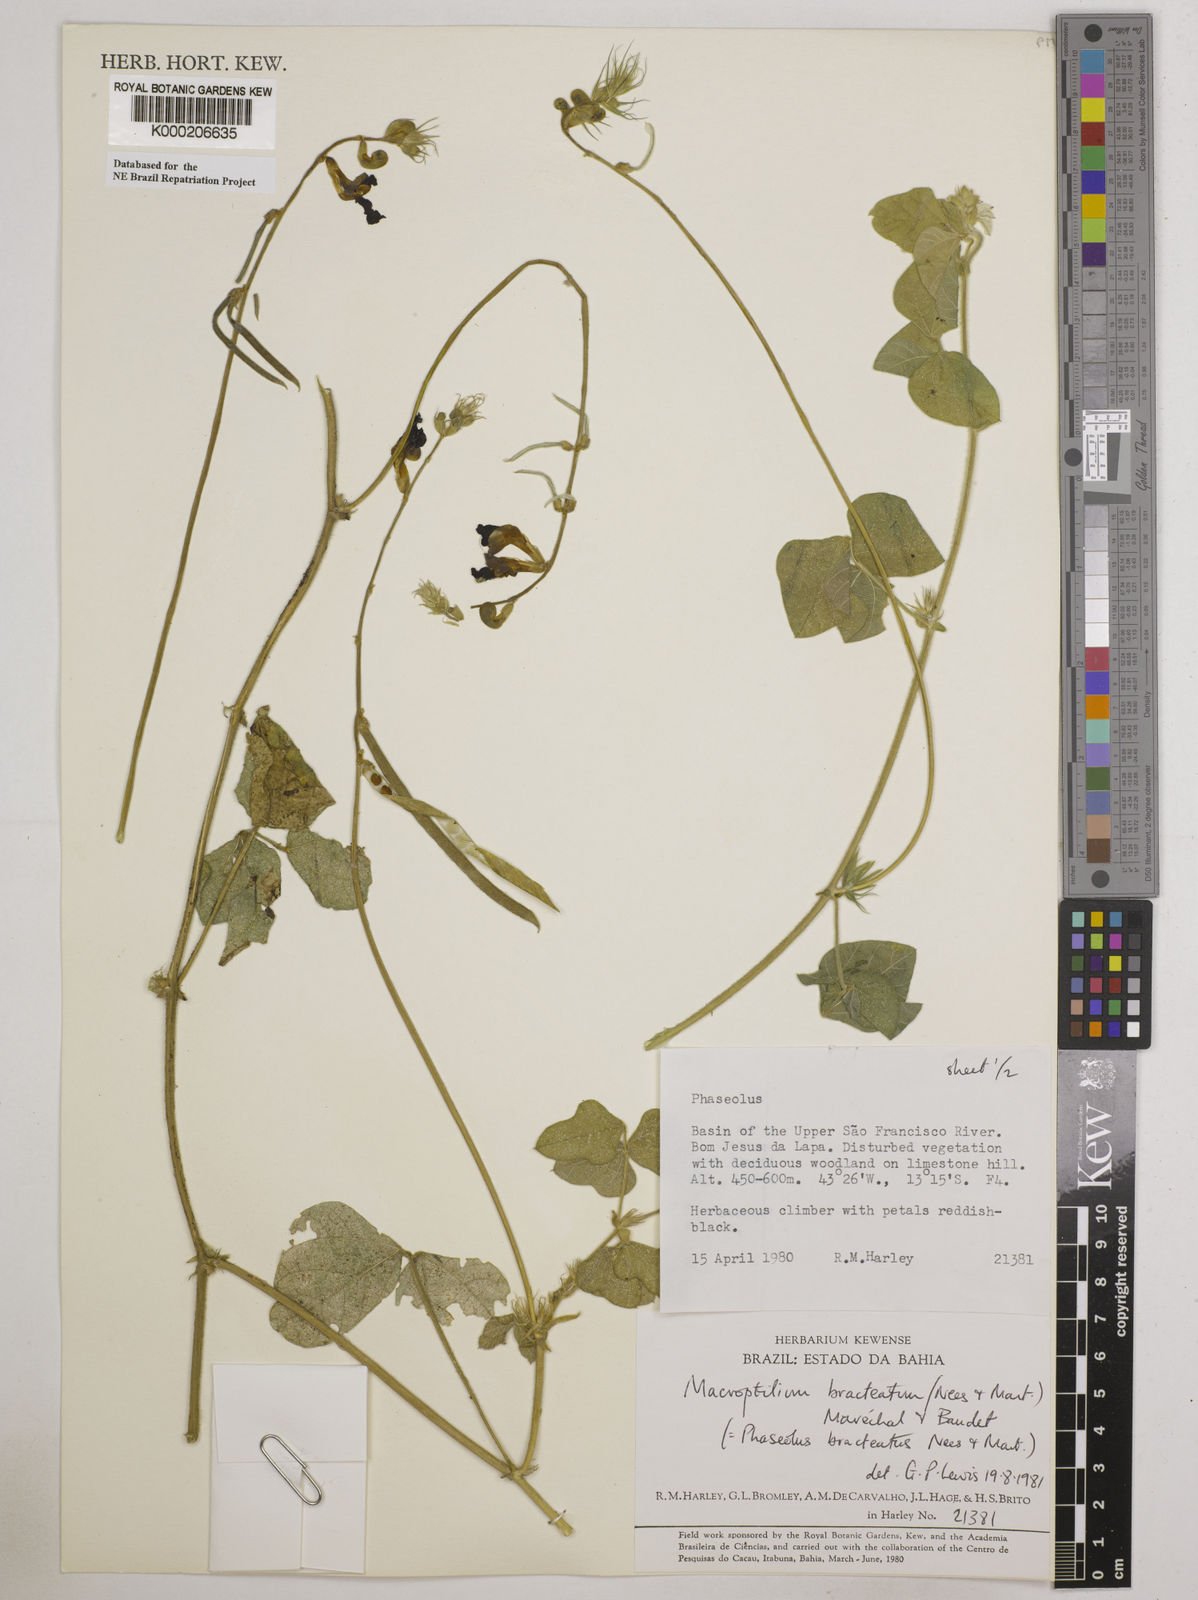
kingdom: Plantae
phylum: Tracheophyta
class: Magnoliopsida
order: Fabales
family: Fabaceae
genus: Macroptilium
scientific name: Macroptilium
